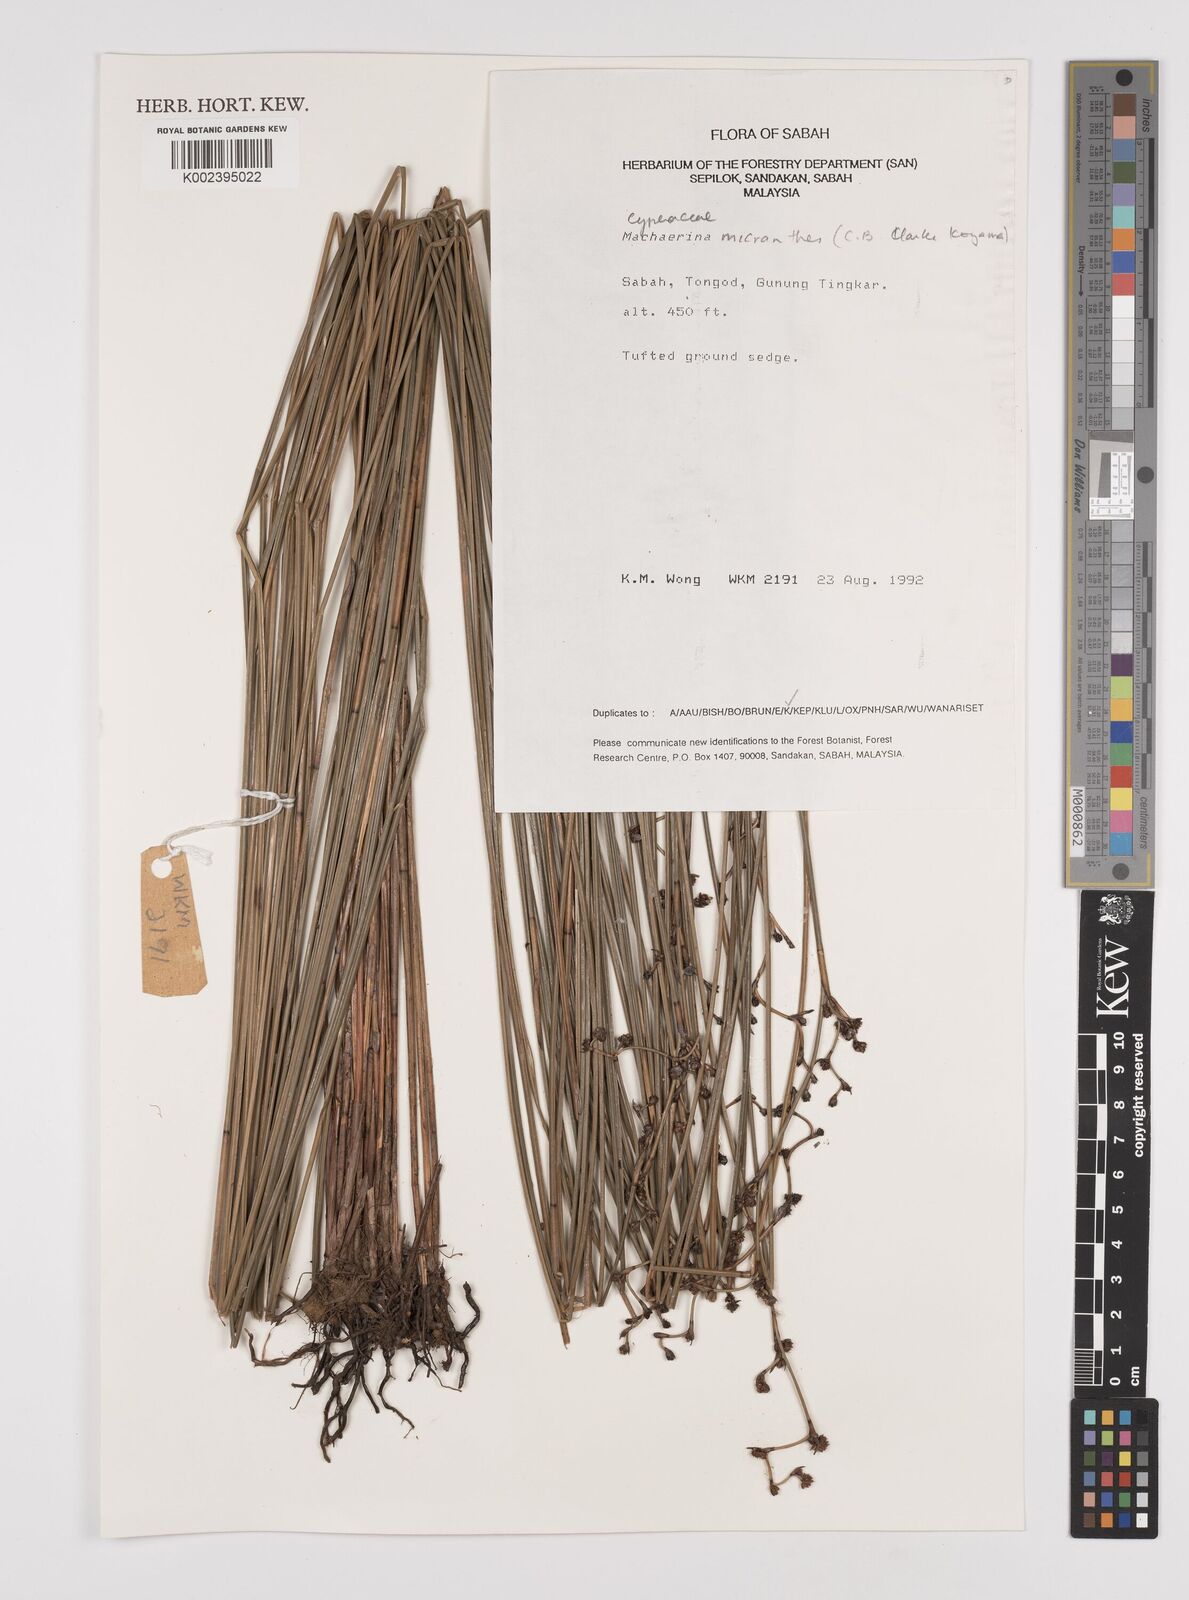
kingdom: Plantae
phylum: Tracheophyta
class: Liliopsida
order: Poales
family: Cyperaceae
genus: Machaerina
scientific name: Machaerina disticha
